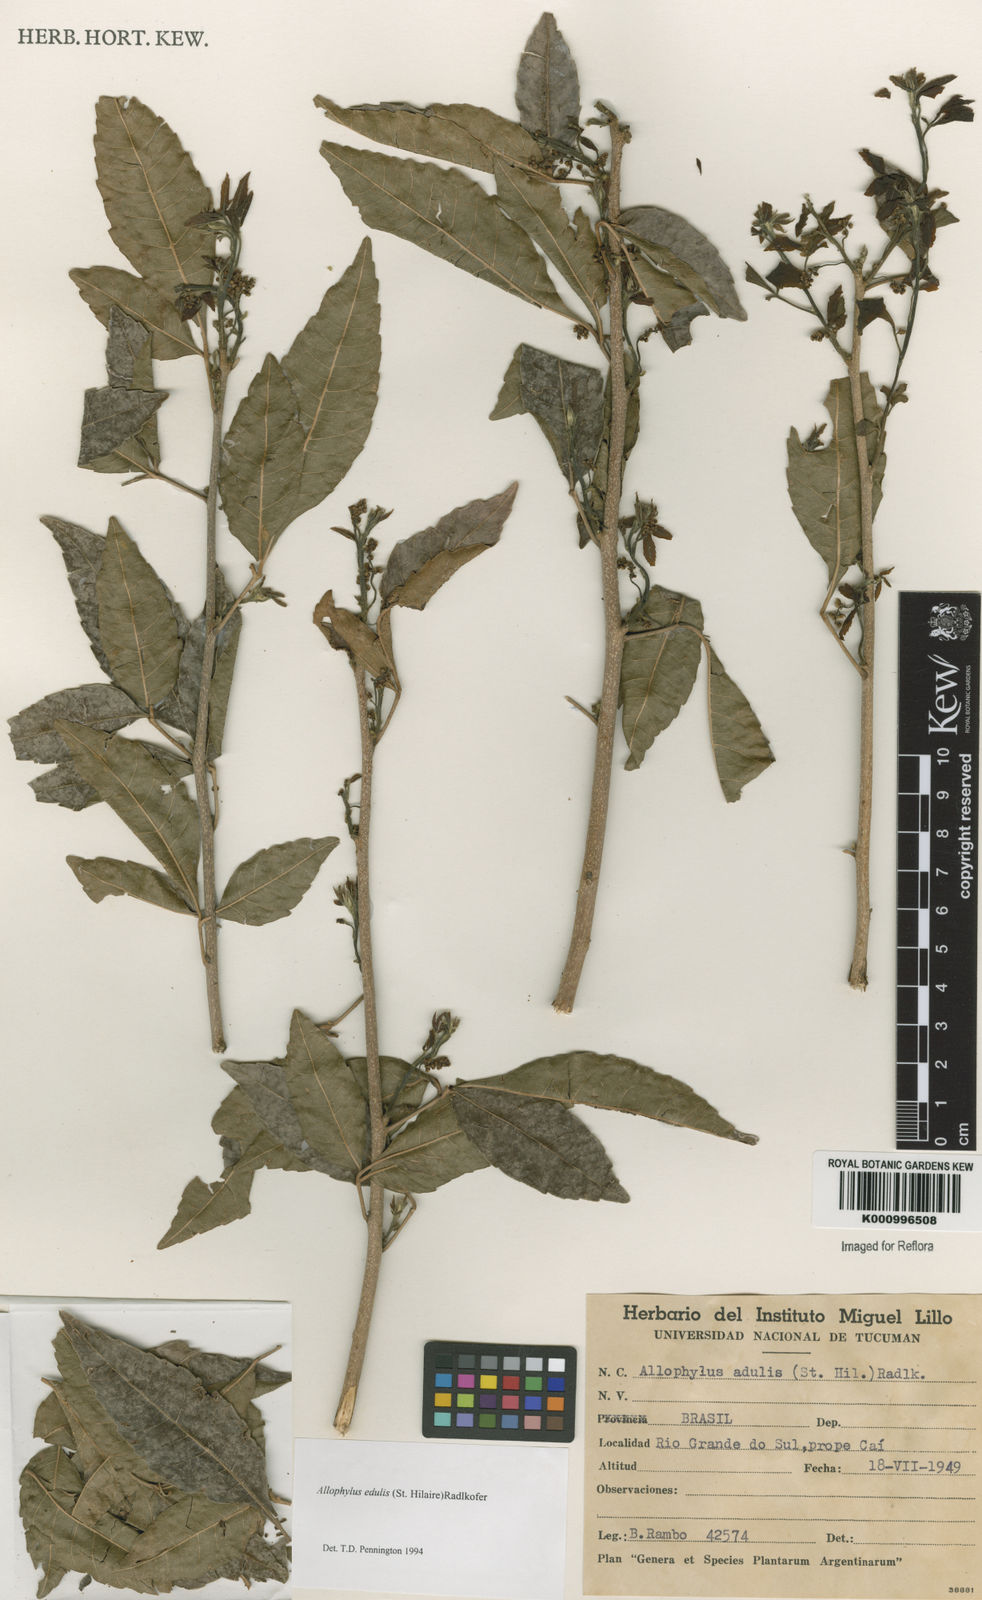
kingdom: Plantae
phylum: Tracheophyta
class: Magnoliopsida
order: Sapindales
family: Sapindaceae
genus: Allophylus
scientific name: Allophylus edulis
